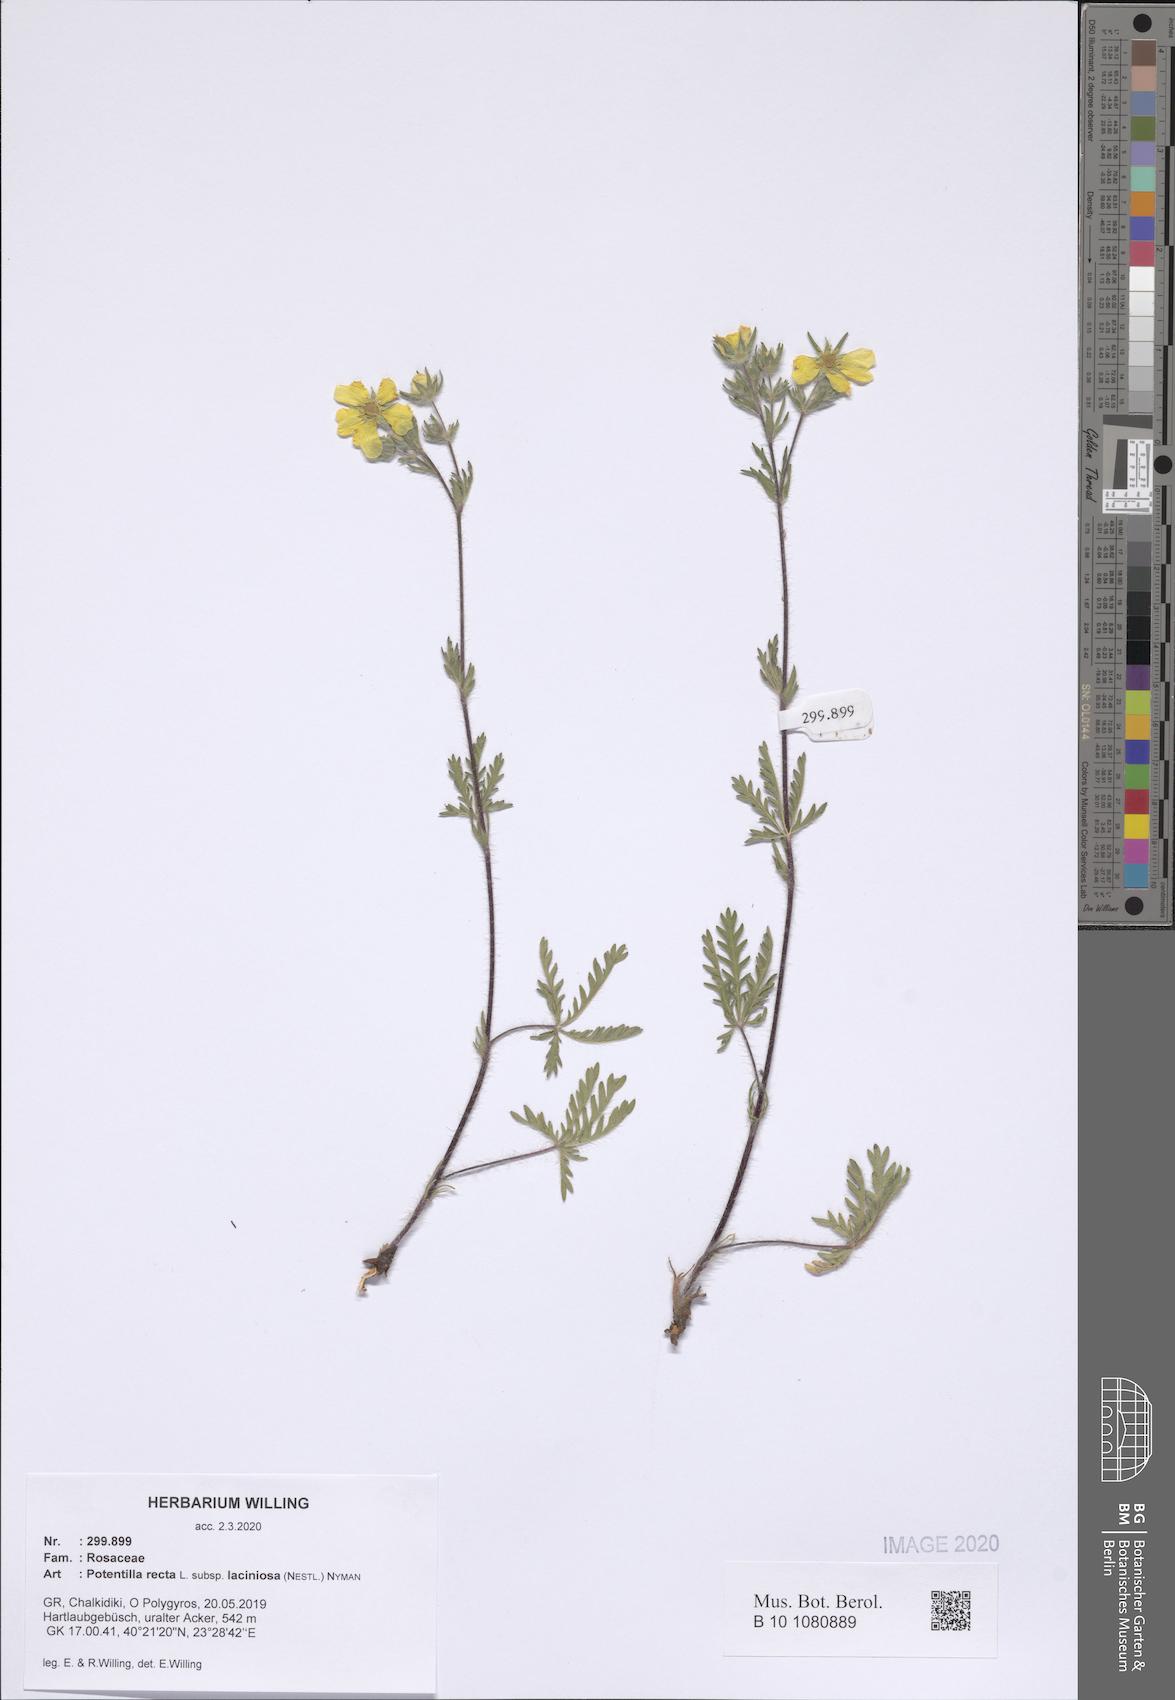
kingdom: Plantae
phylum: Tracheophyta
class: Magnoliopsida
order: Rosales
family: Rosaceae
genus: Potentilla
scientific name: Potentilla recta
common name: Sulphur cinquefoil
